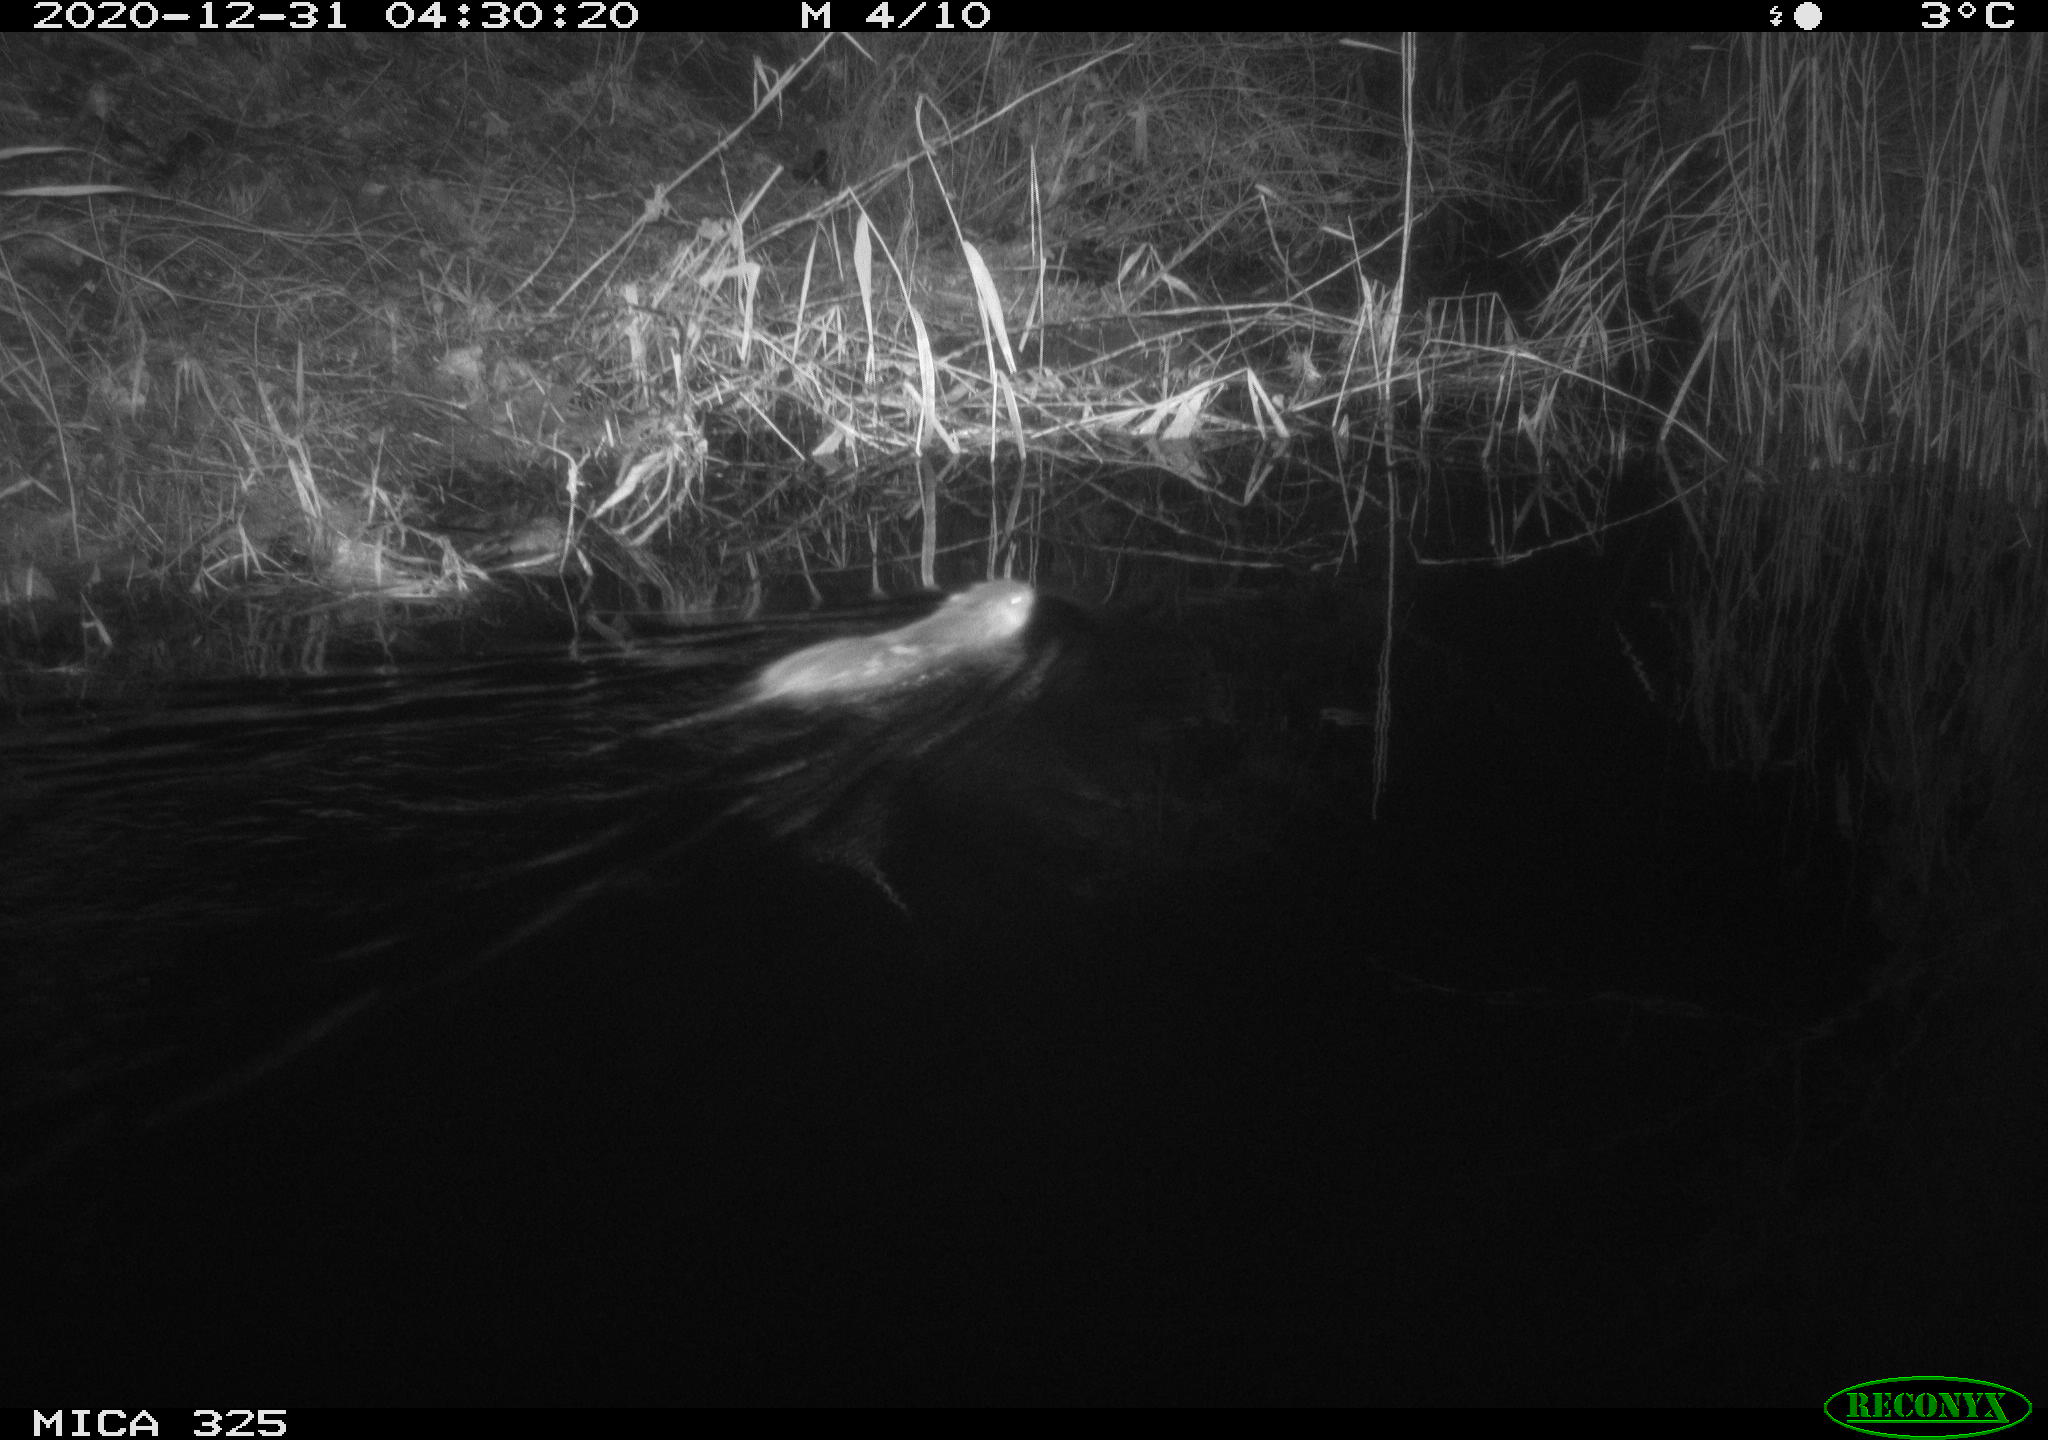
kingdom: Animalia
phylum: Chordata
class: Mammalia
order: Rodentia
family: Myocastoridae
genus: Myocastor
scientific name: Myocastor coypus
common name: Coypu
